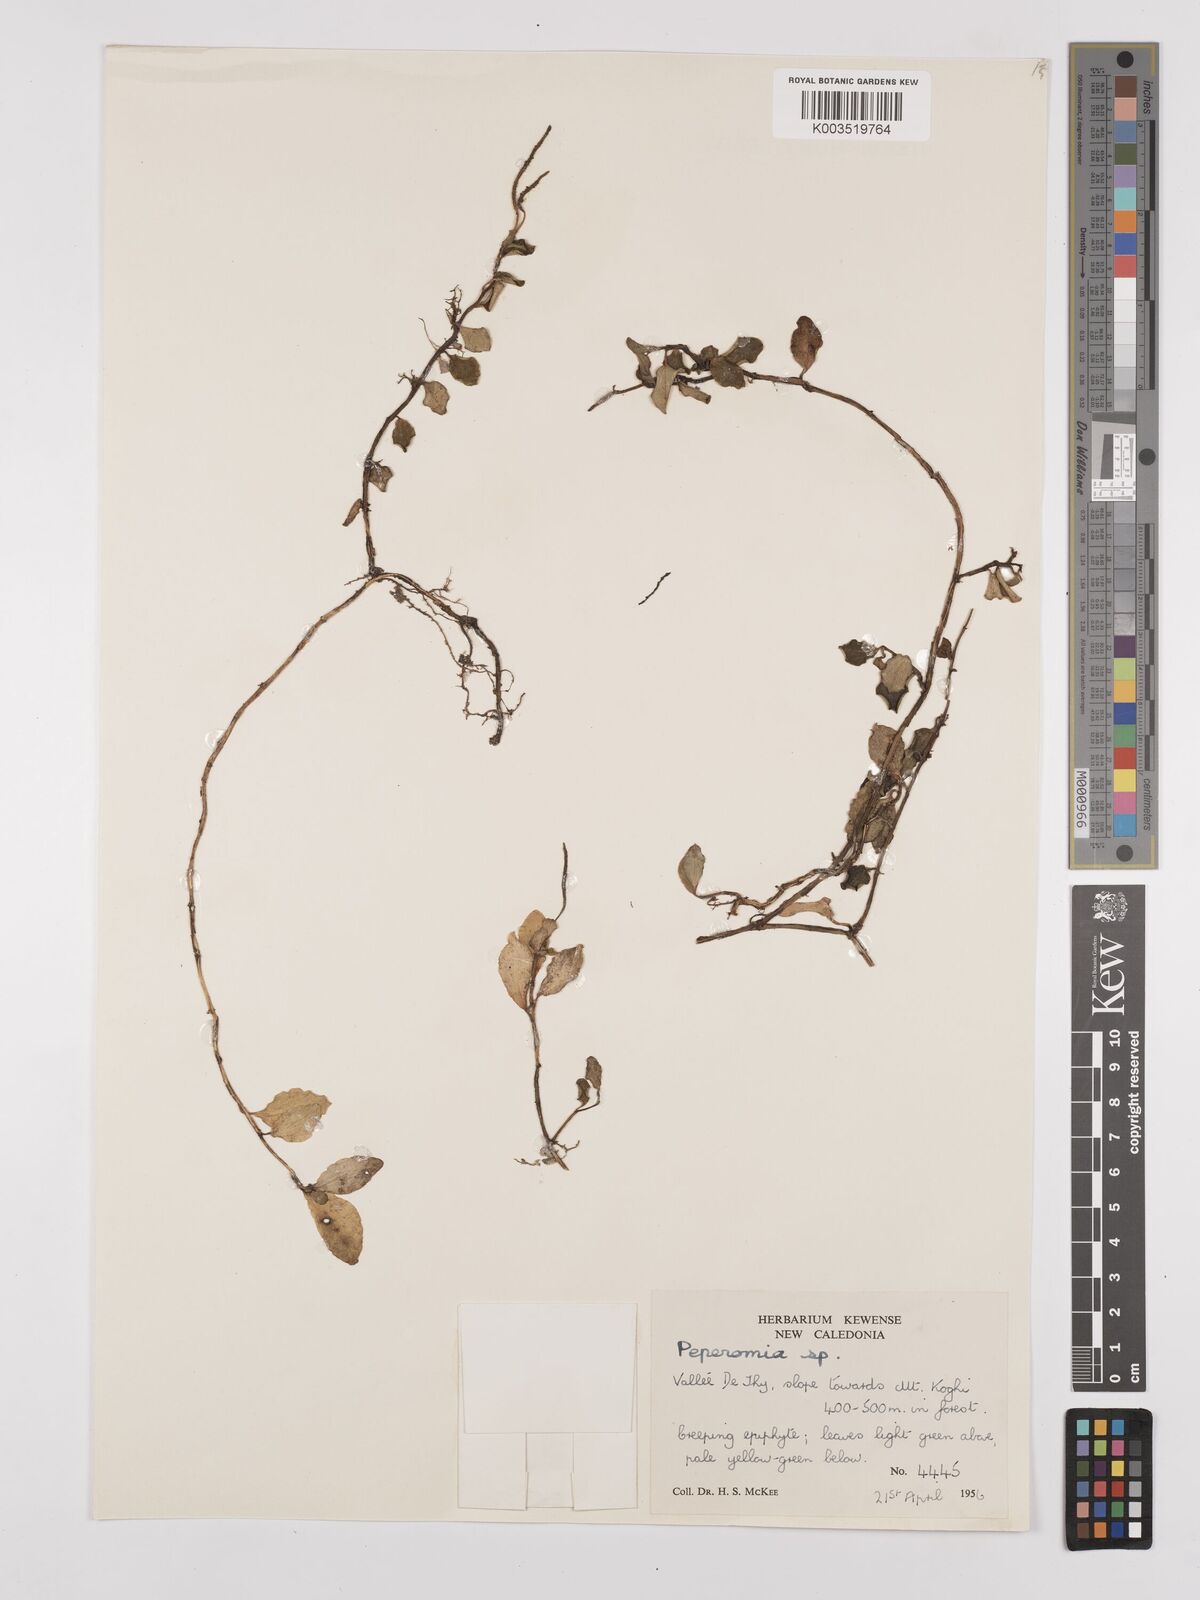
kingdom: Plantae
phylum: Tracheophyta
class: Magnoliopsida
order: Piperales
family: Piperaceae
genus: Peperomia
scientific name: Peperomia
